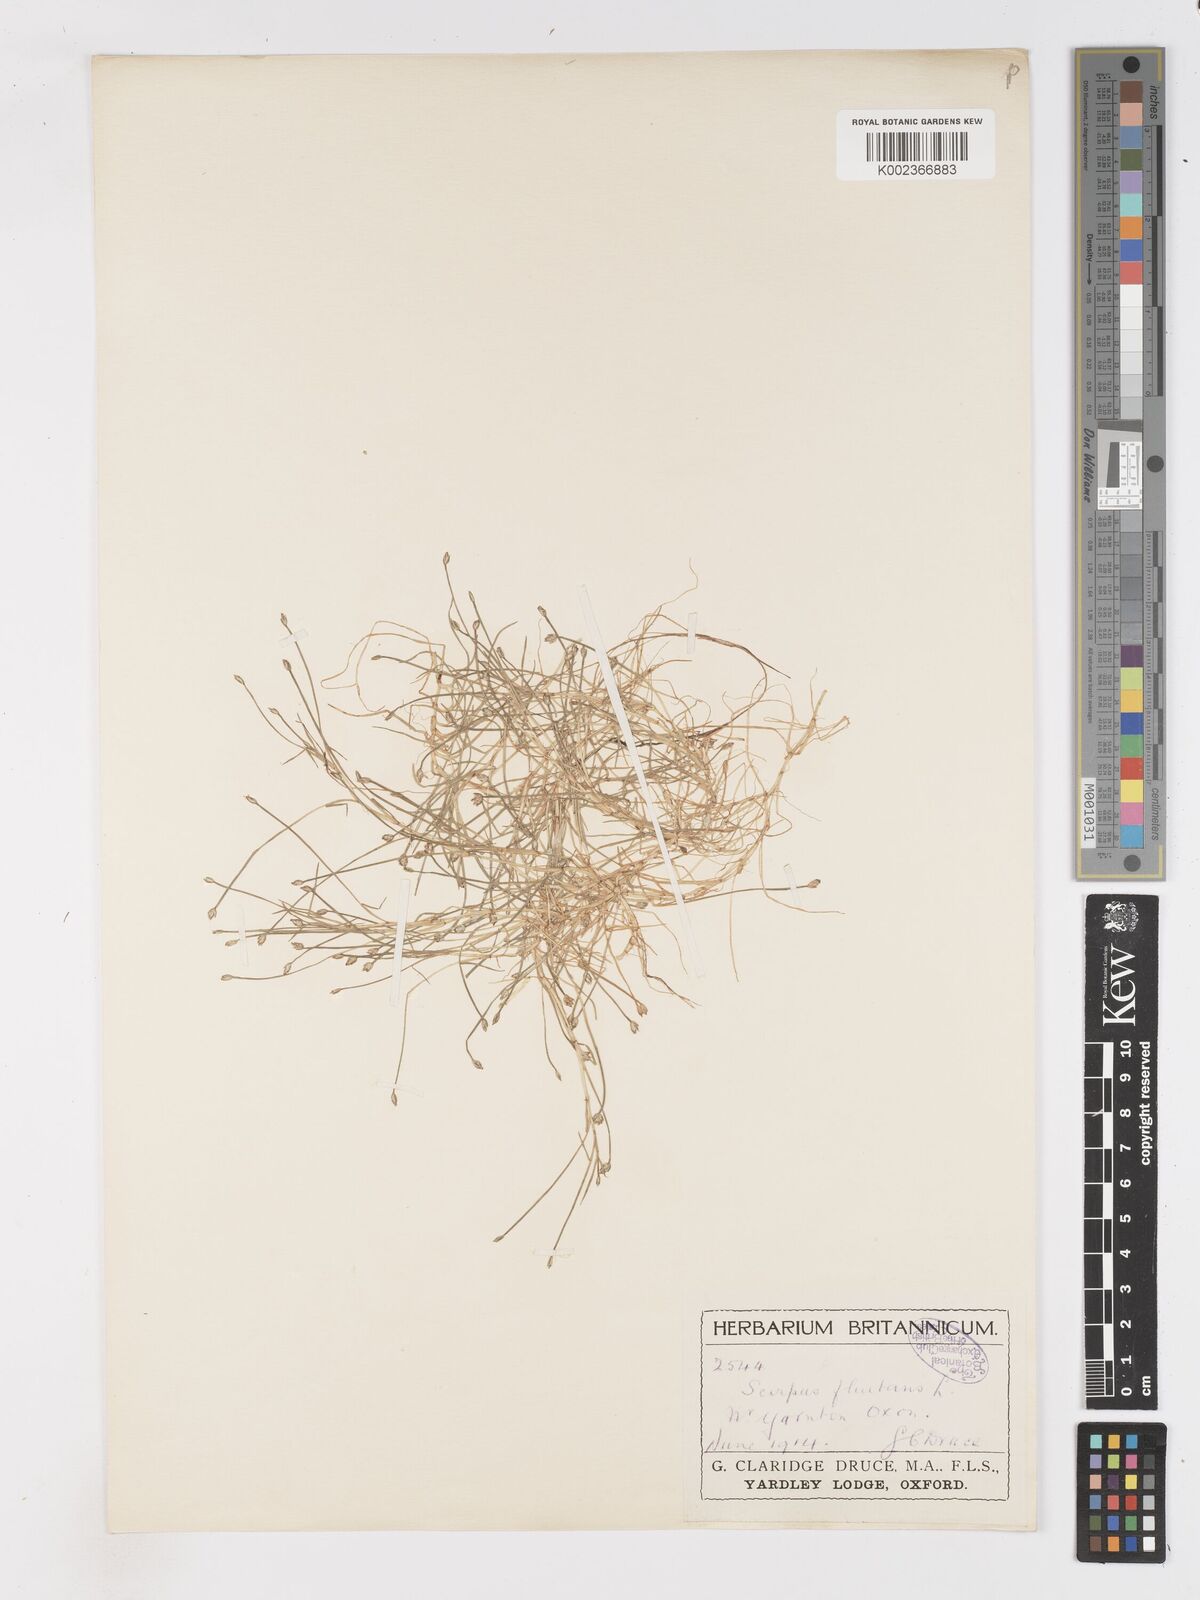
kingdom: Plantae
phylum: Tracheophyta
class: Liliopsida
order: Poales
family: Cyperaceae
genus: Isolepis
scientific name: Isolepis fluitans
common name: Floating club-rush
